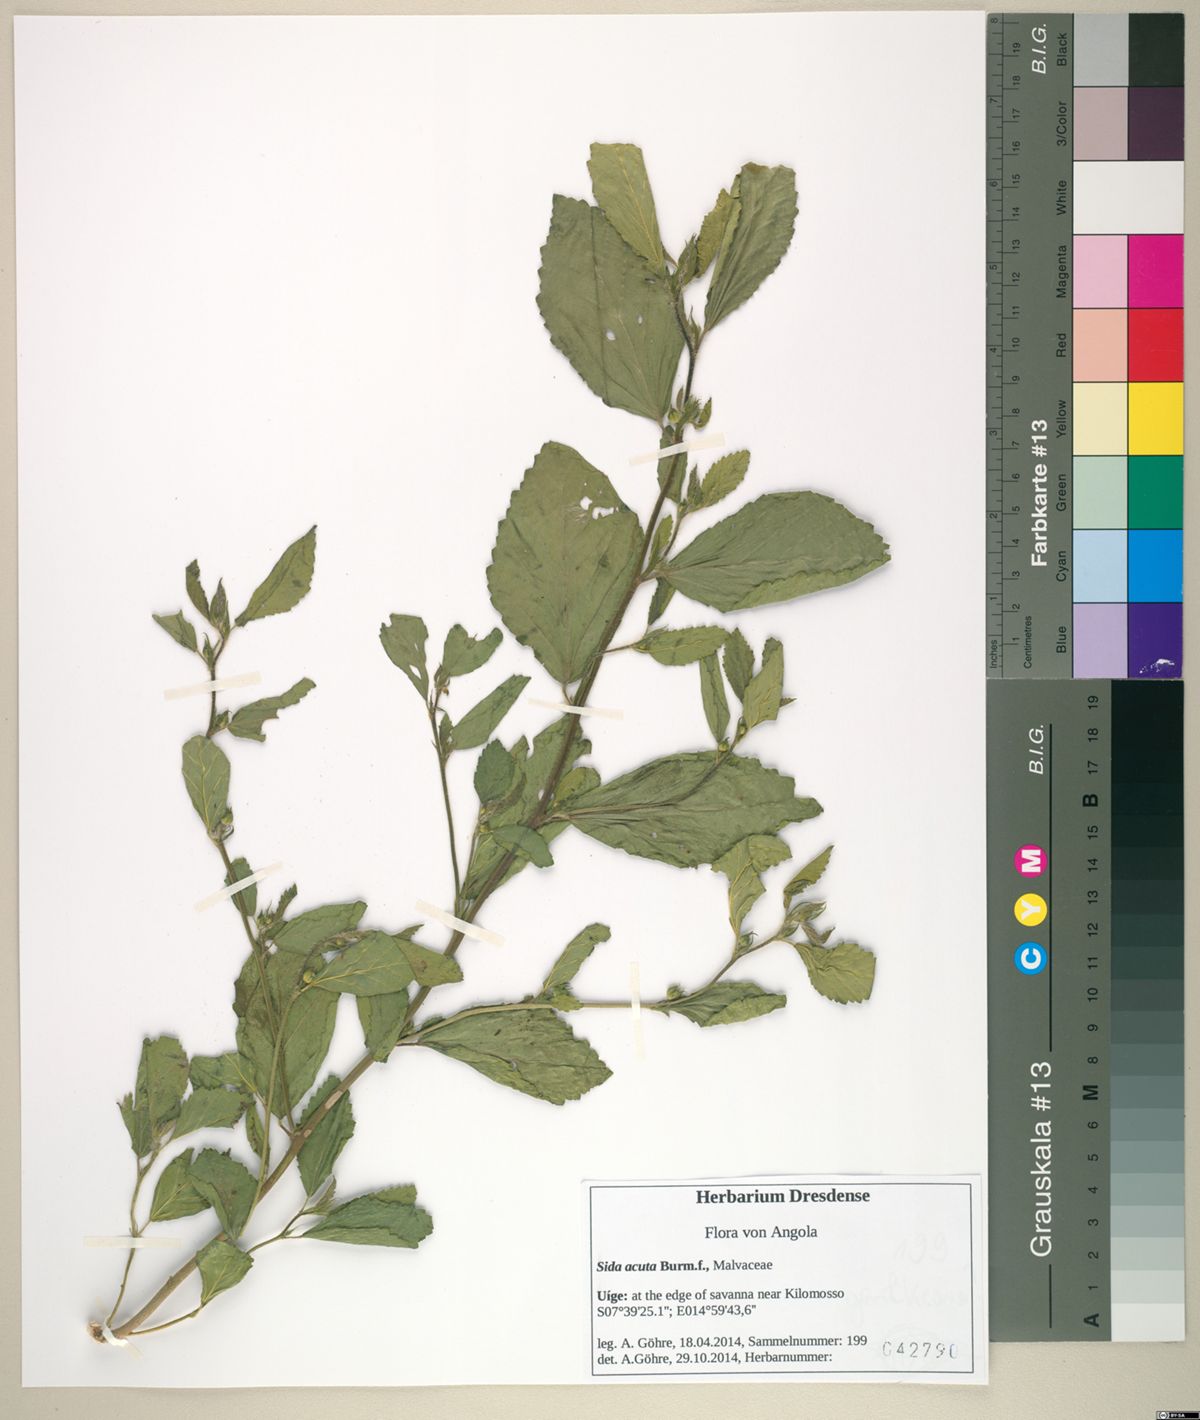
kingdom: Plantae
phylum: Tracheophyta
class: Magnoliopsida
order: Malvales
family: Malvaceae
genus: Sida
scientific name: Sida acuta
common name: Common wireweed
